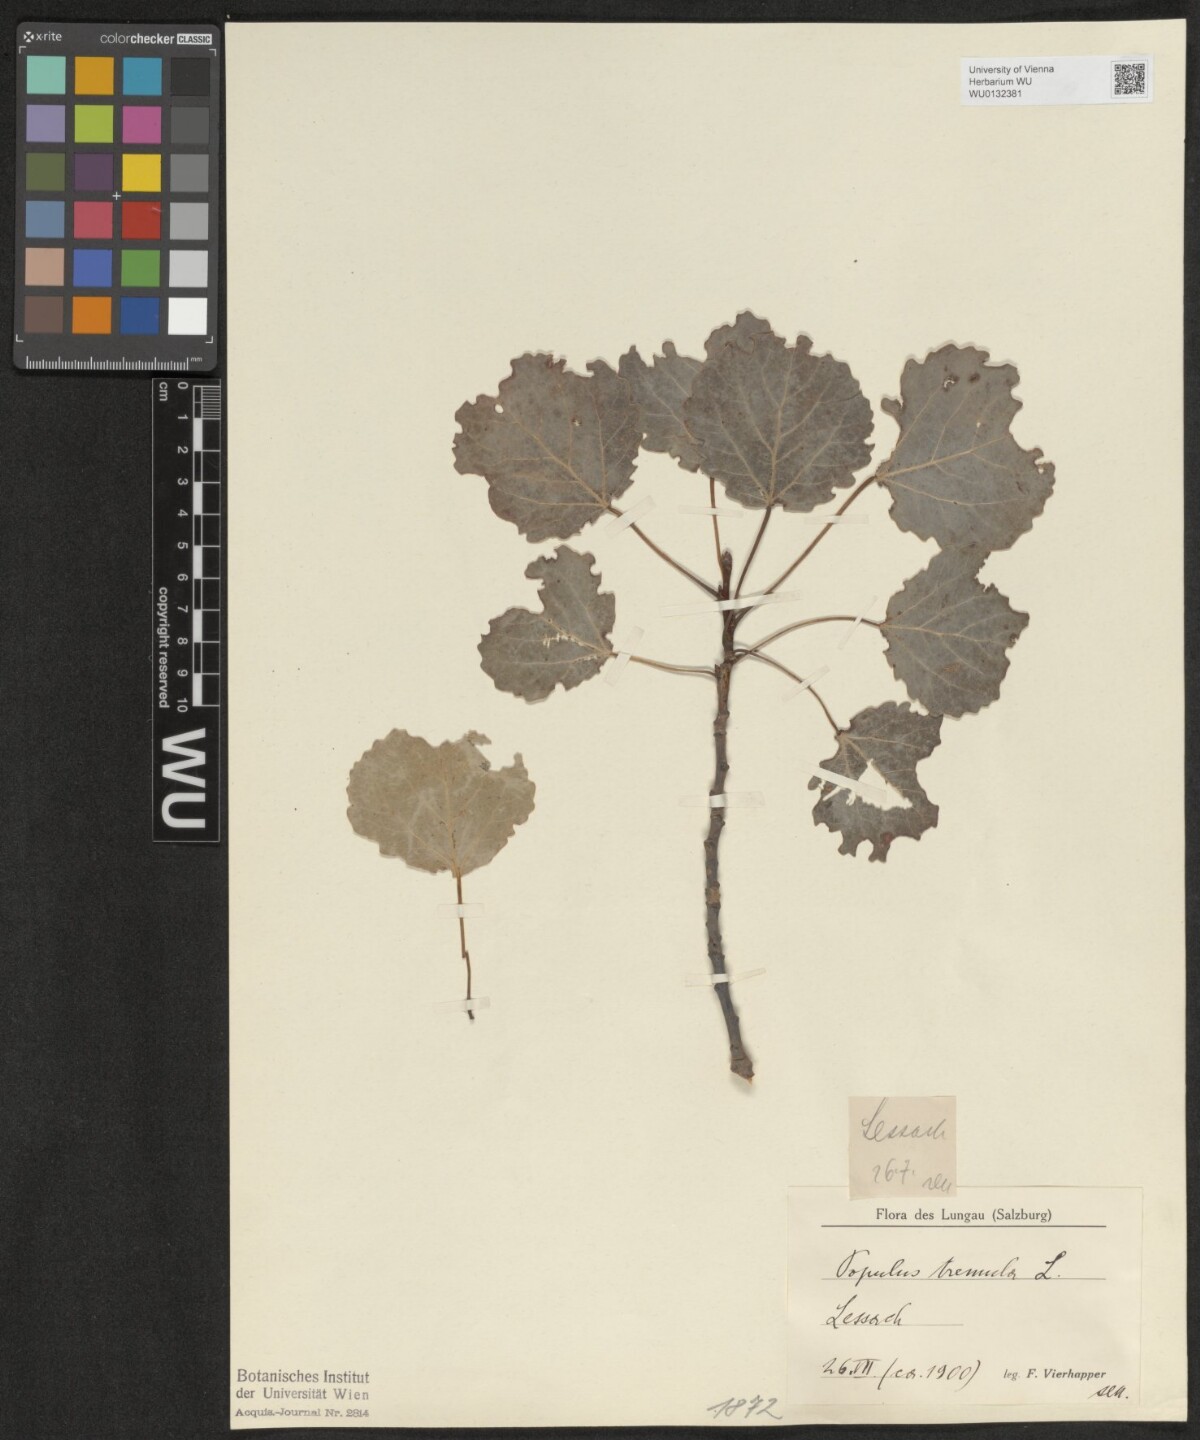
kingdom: Plantae
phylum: Tracheophyta
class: Magnoliopsida
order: Malpighiales
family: Salicaceae
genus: Populus
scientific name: Populus tremula
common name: European aspen
